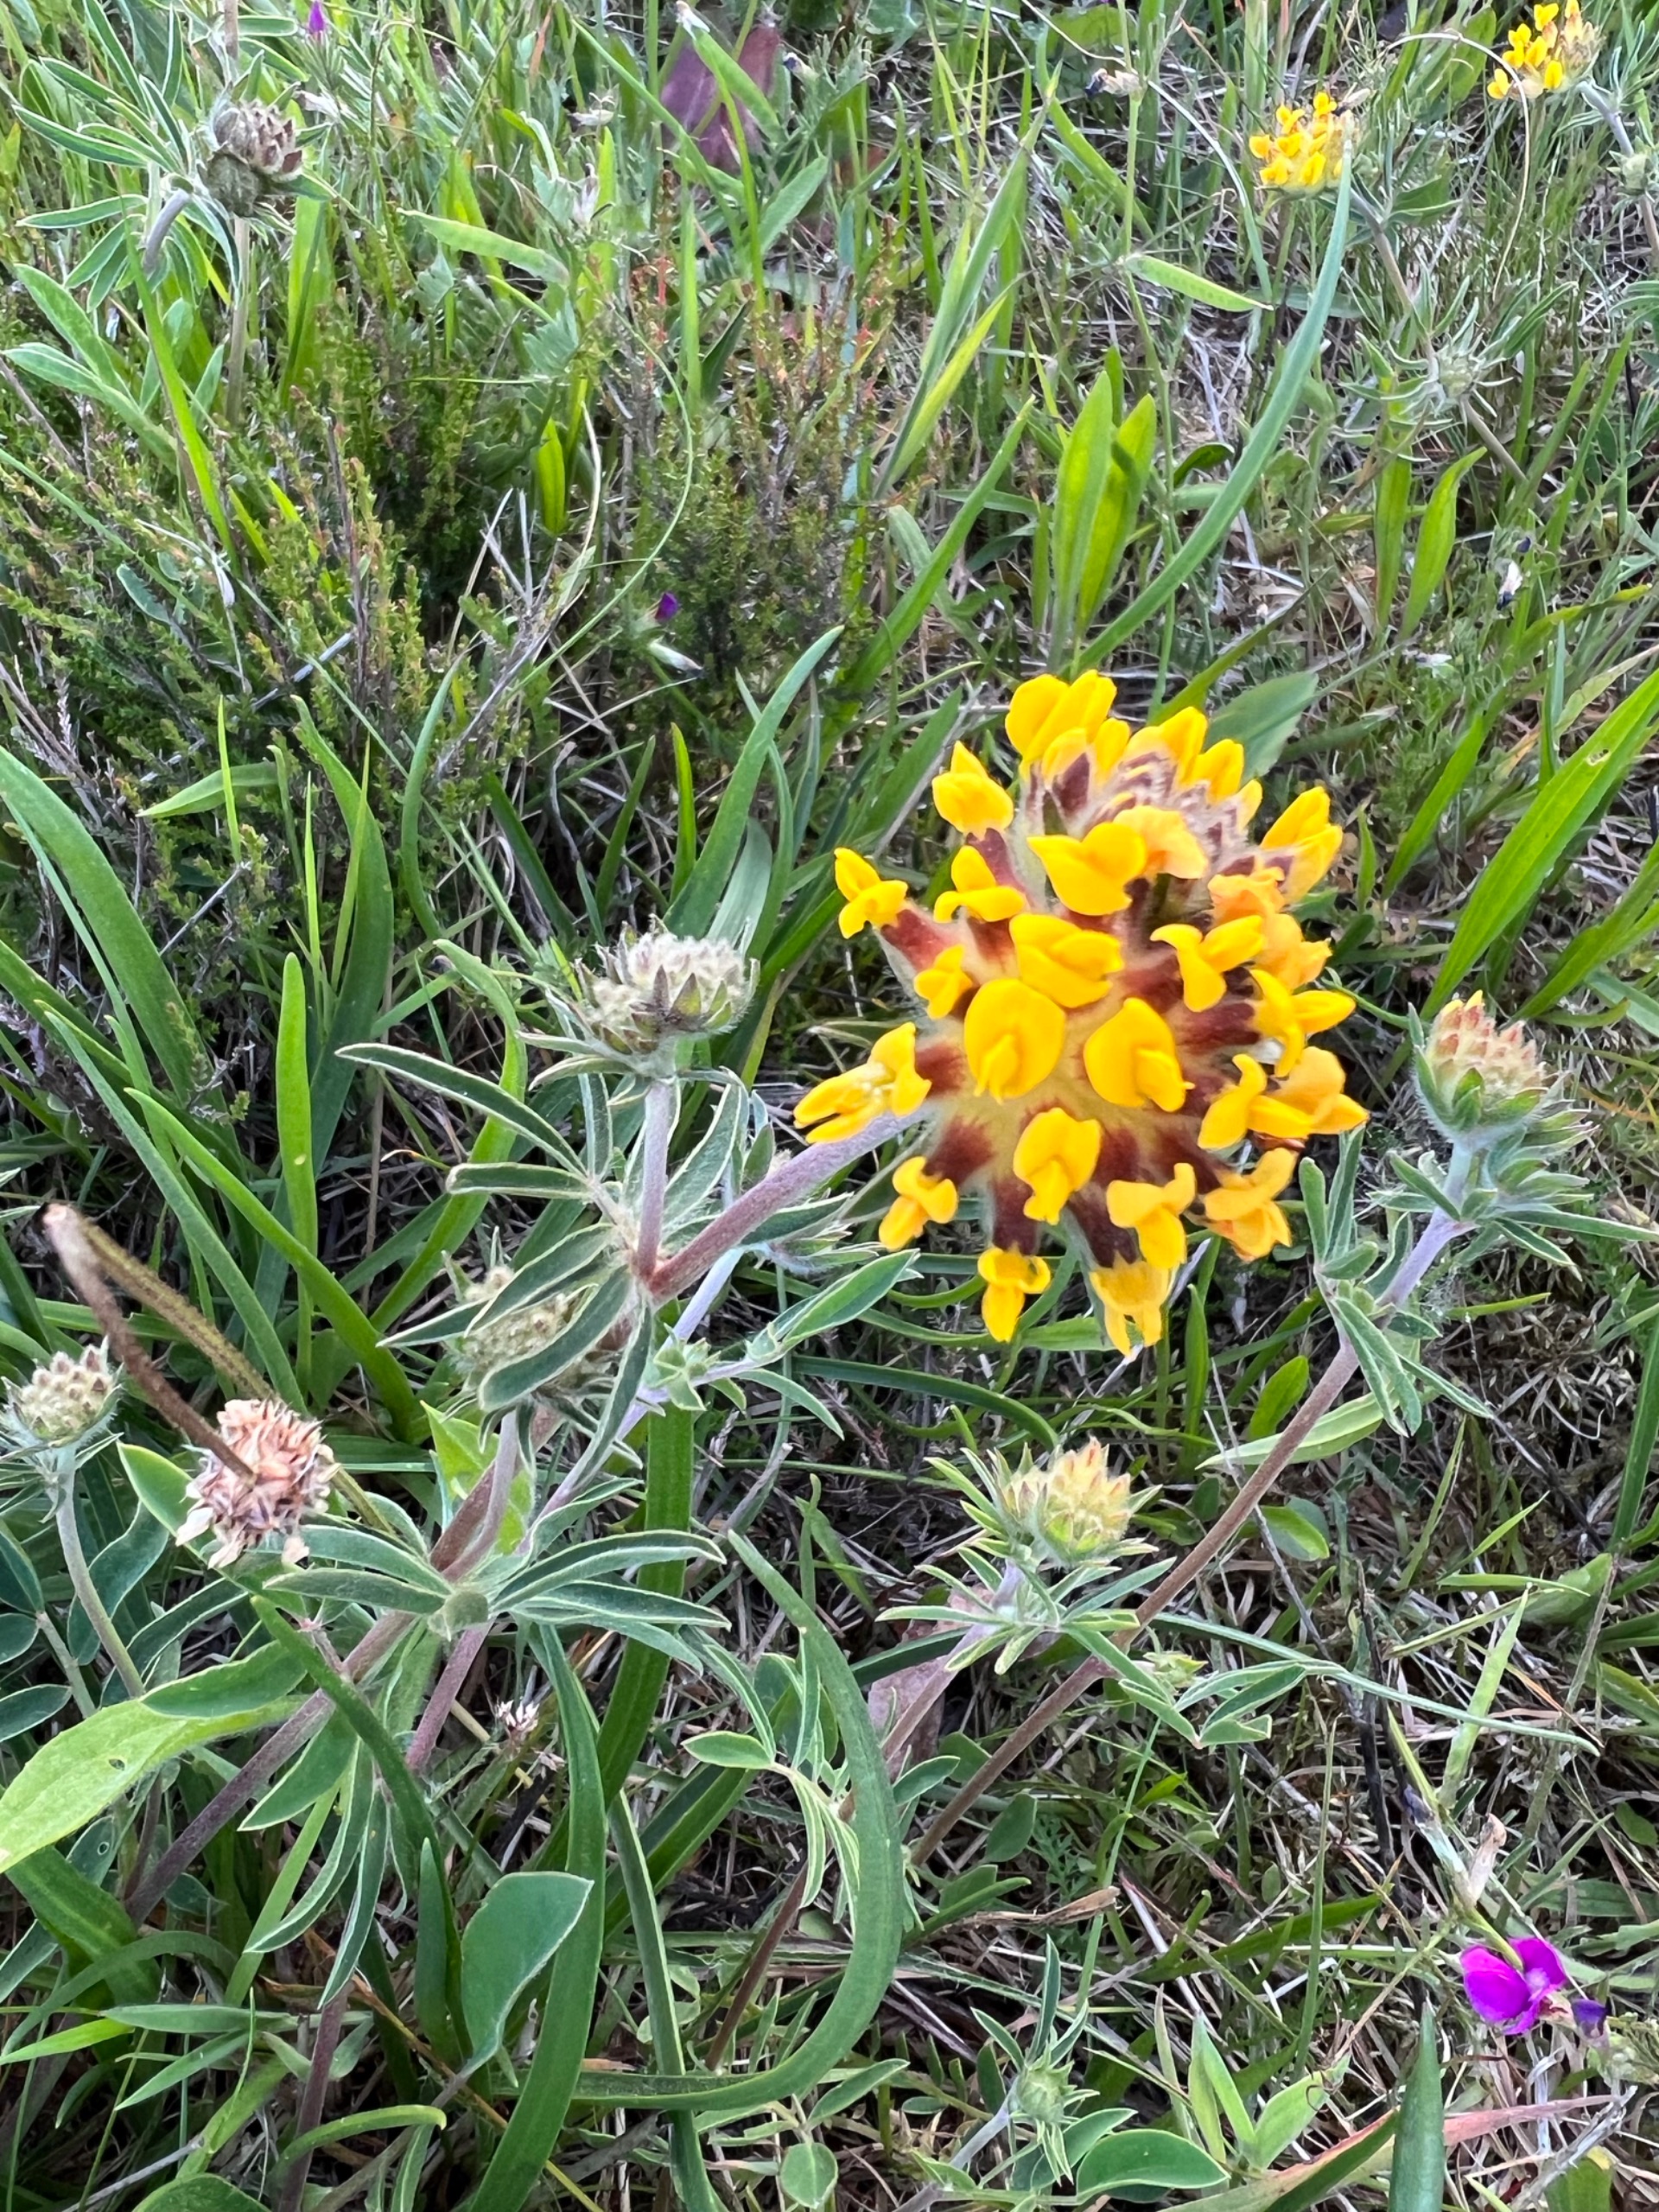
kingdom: Plantae
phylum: Tracheophyta
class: Magnoliopsida
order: Fabales
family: Fabaceae
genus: Anthyllis
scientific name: Anthyllis vulneraria
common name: Rundbælg
